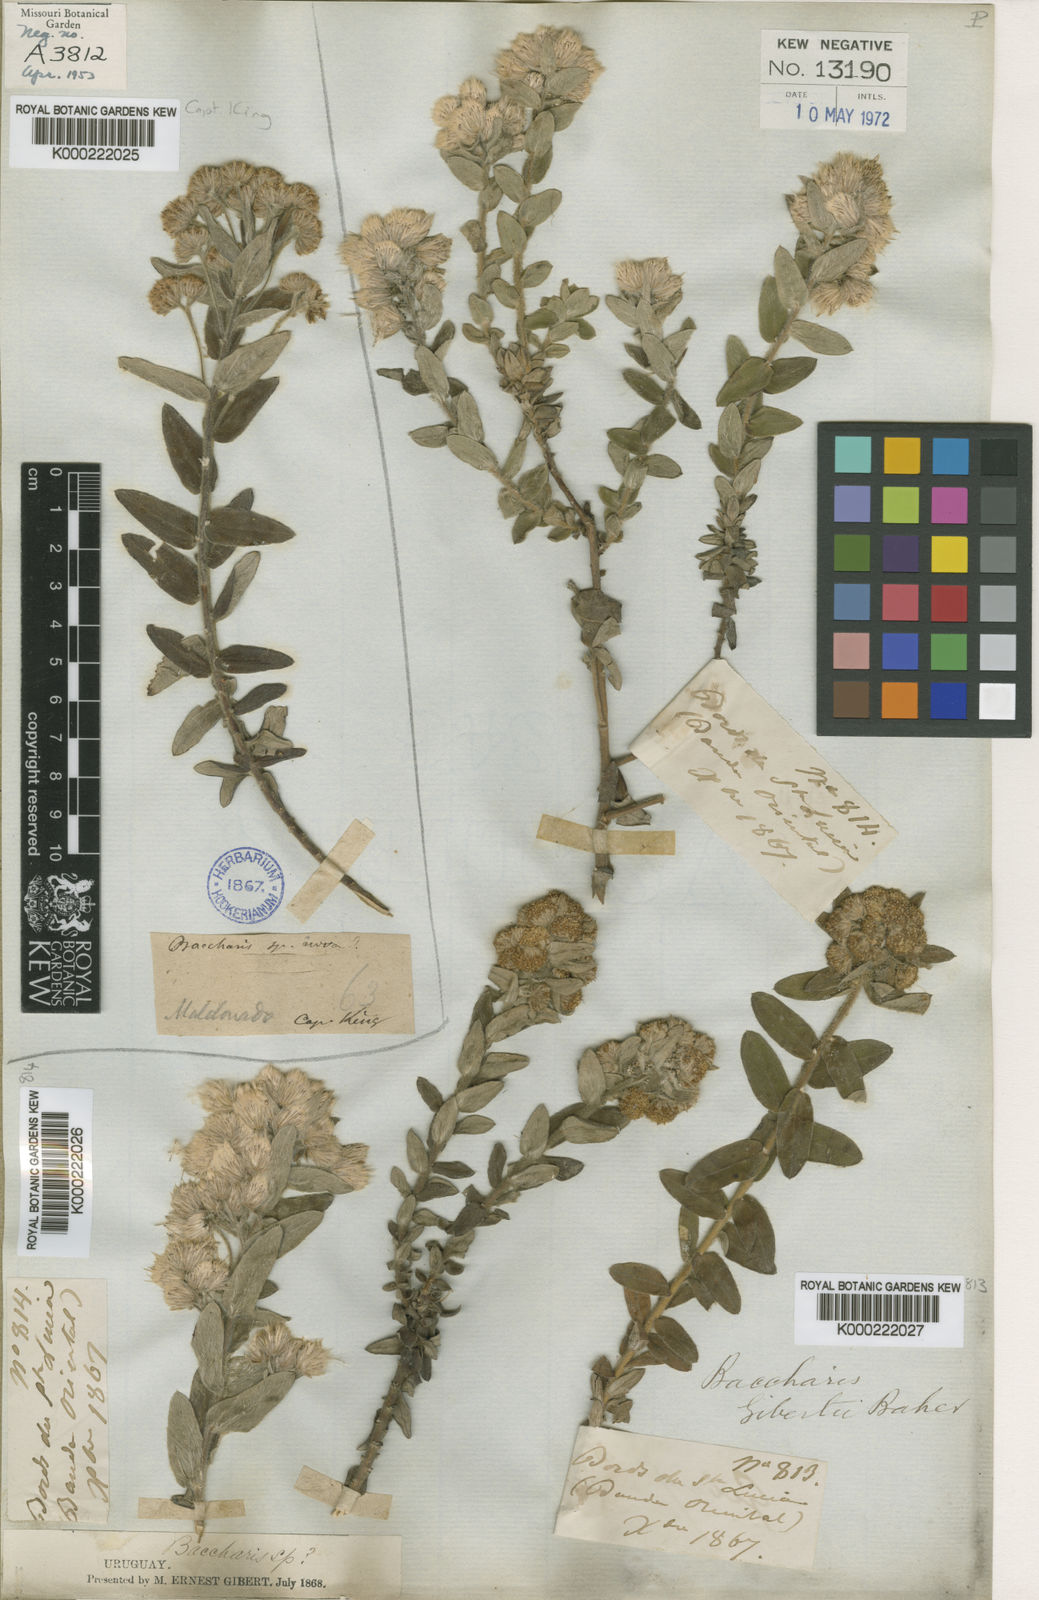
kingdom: Plantae
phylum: Tracheophyta
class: Magnoliopsida
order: Asterales
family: Asteraceae
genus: Baccharis
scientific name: Baccharis gibertii
